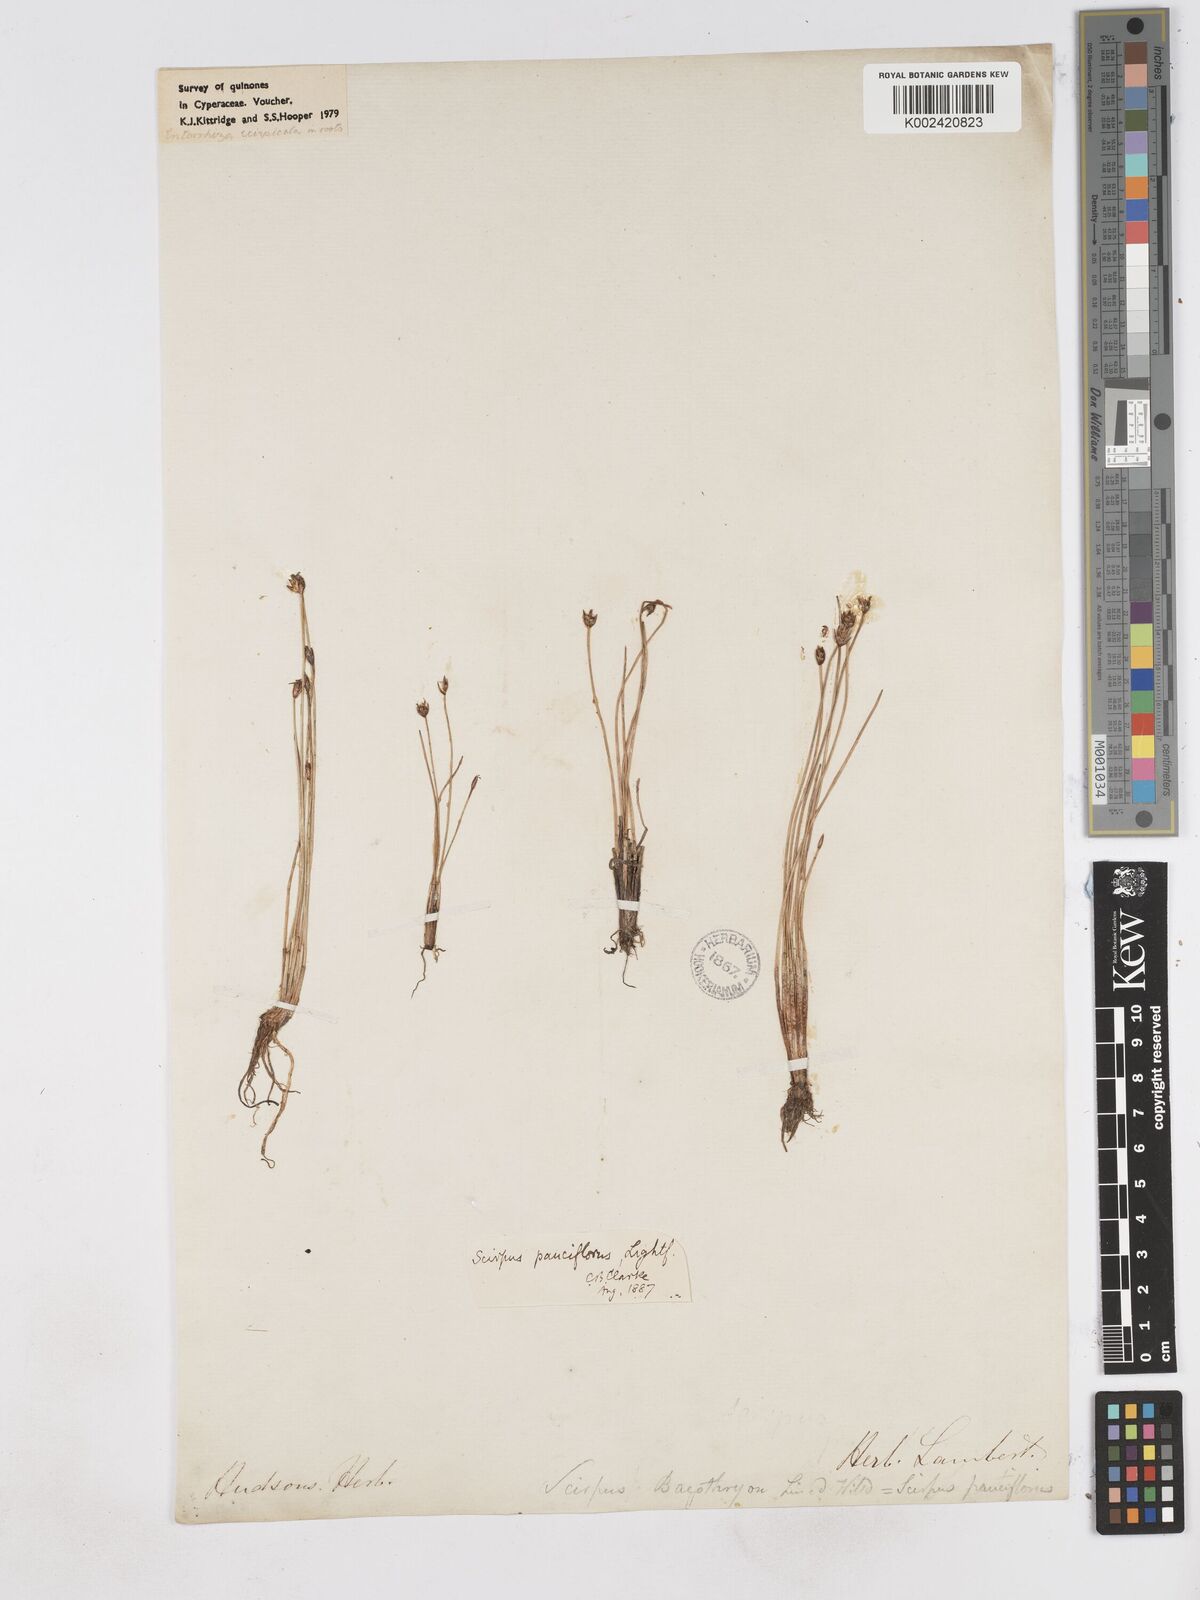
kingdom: Plantae
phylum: Tracheophyta
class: Liliopsida
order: Poales
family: Cyperaceae
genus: Eleocharis
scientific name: Eleocharis quinqueflora
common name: Few-flowered spike-rush
